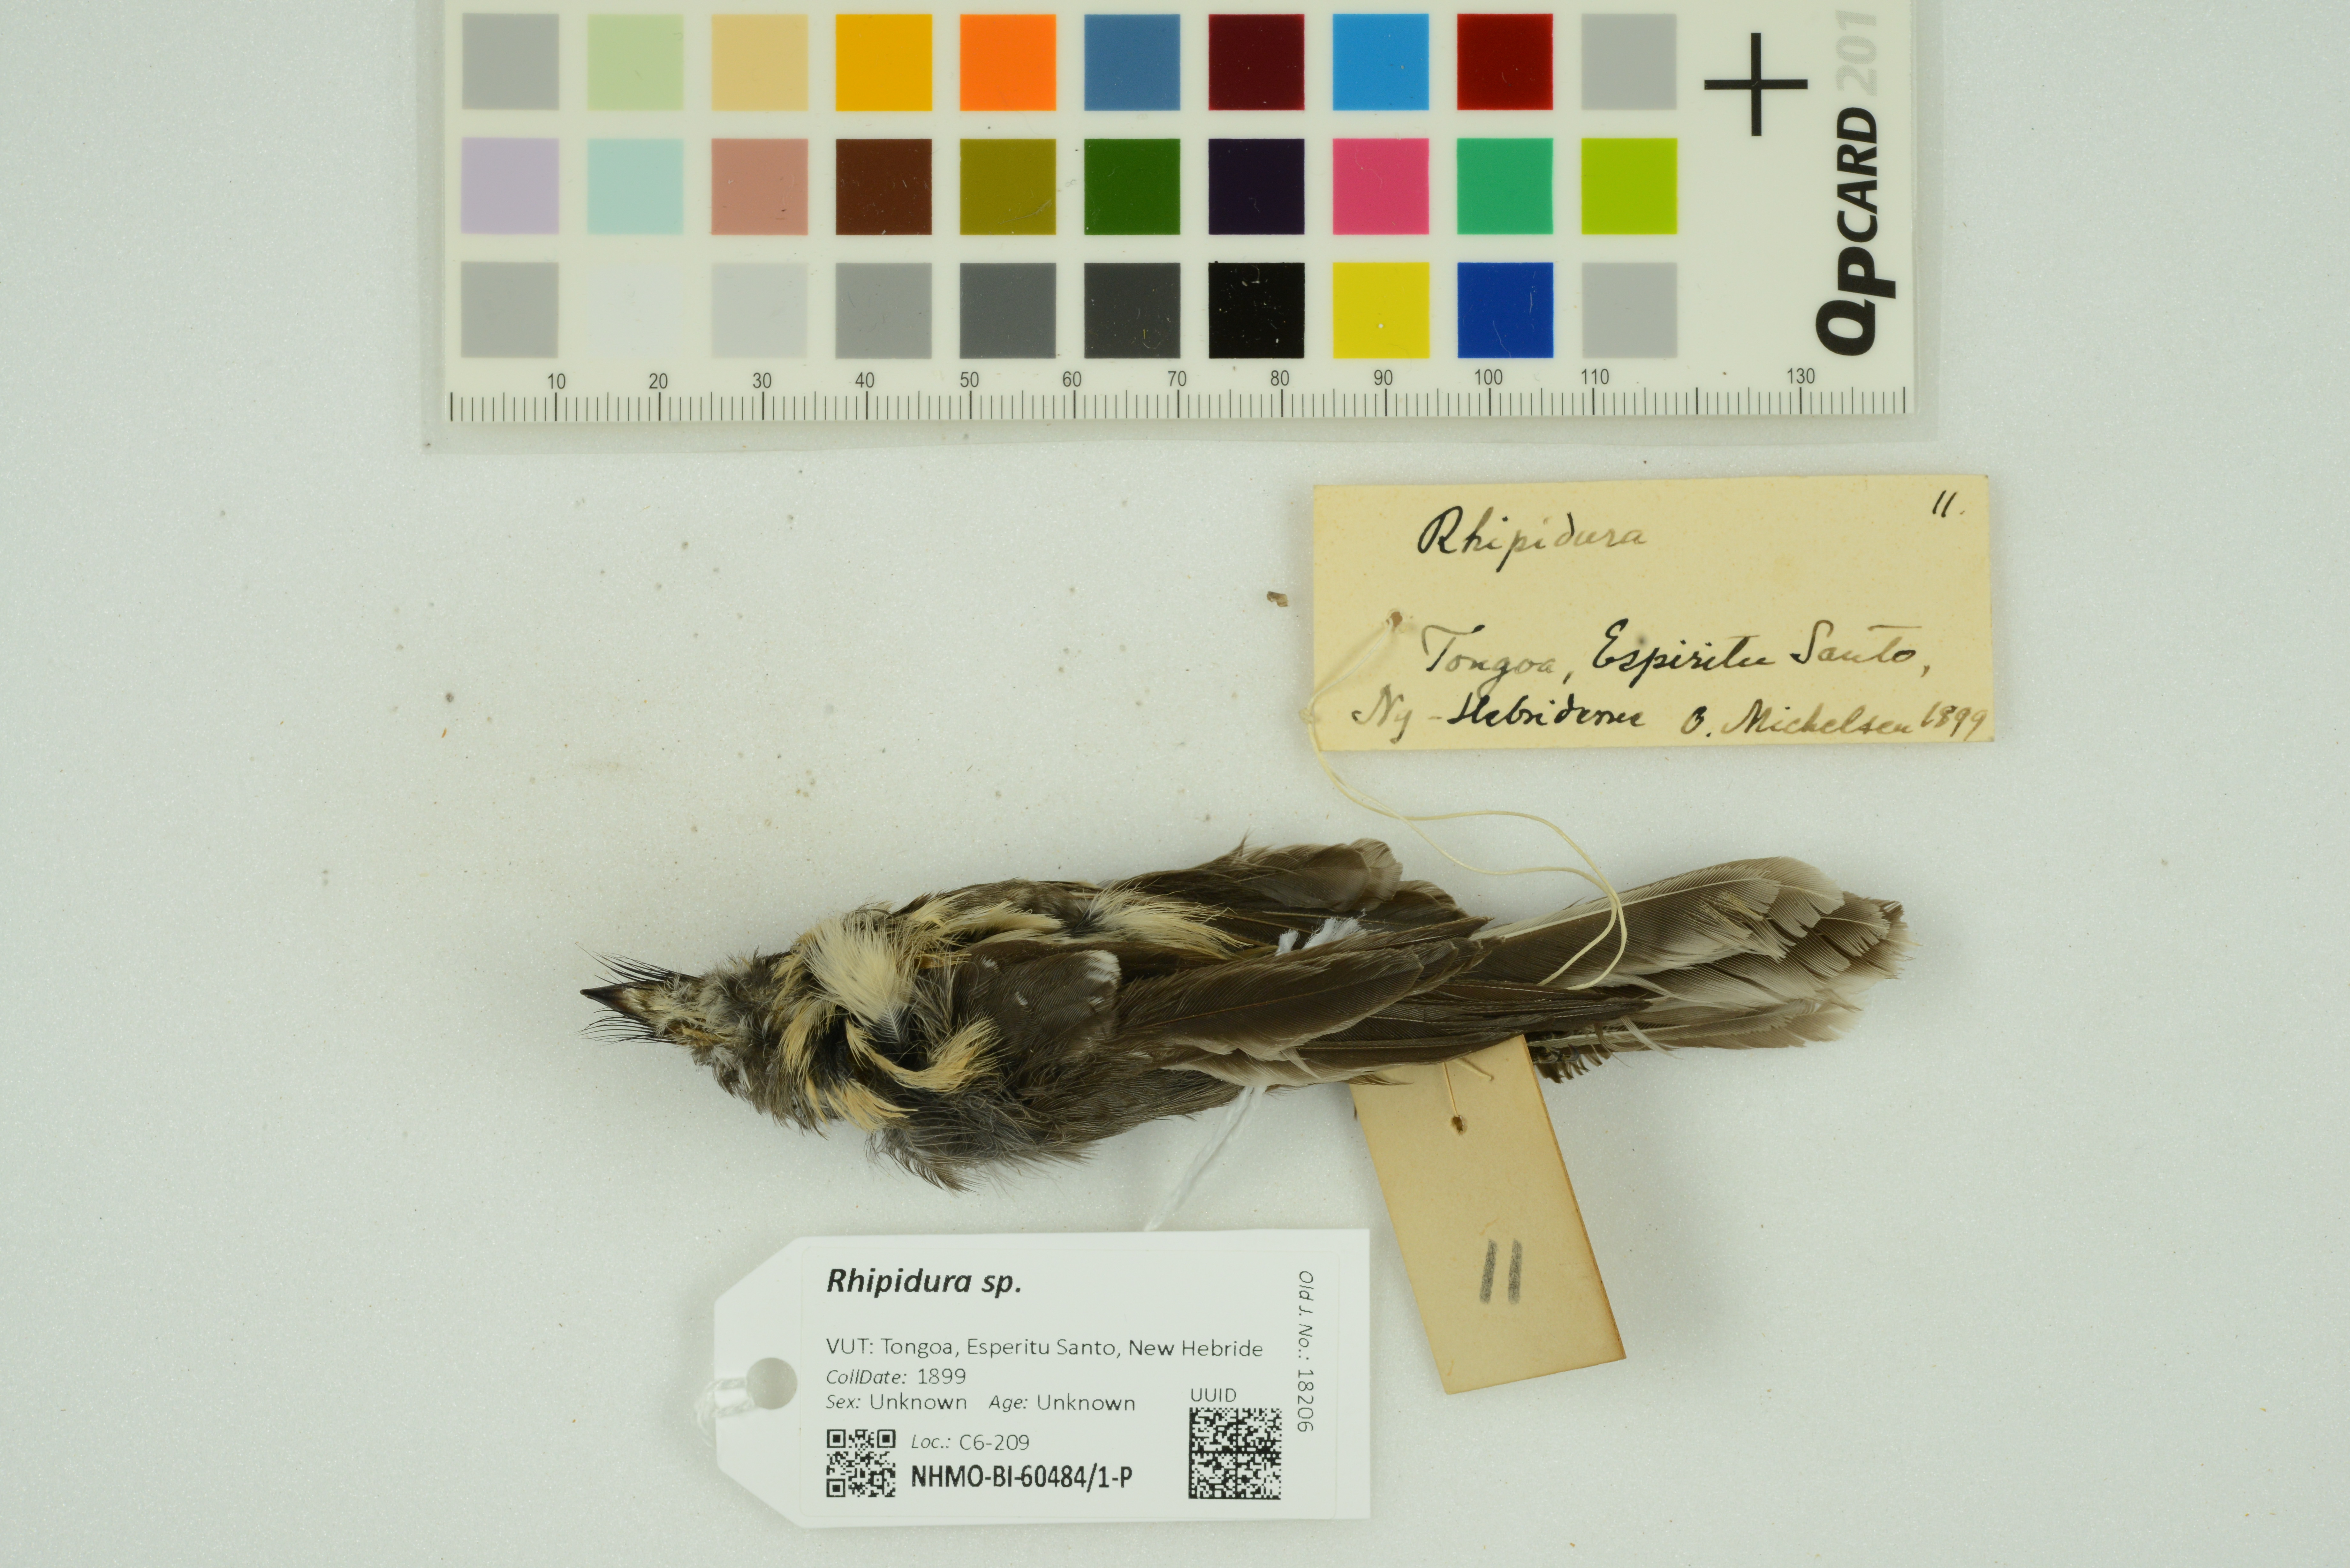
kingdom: Animalia
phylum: Chordata
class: Aves
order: Passeriformes
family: Rhipiduridae
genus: Rhipidura
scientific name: Rhipidura
